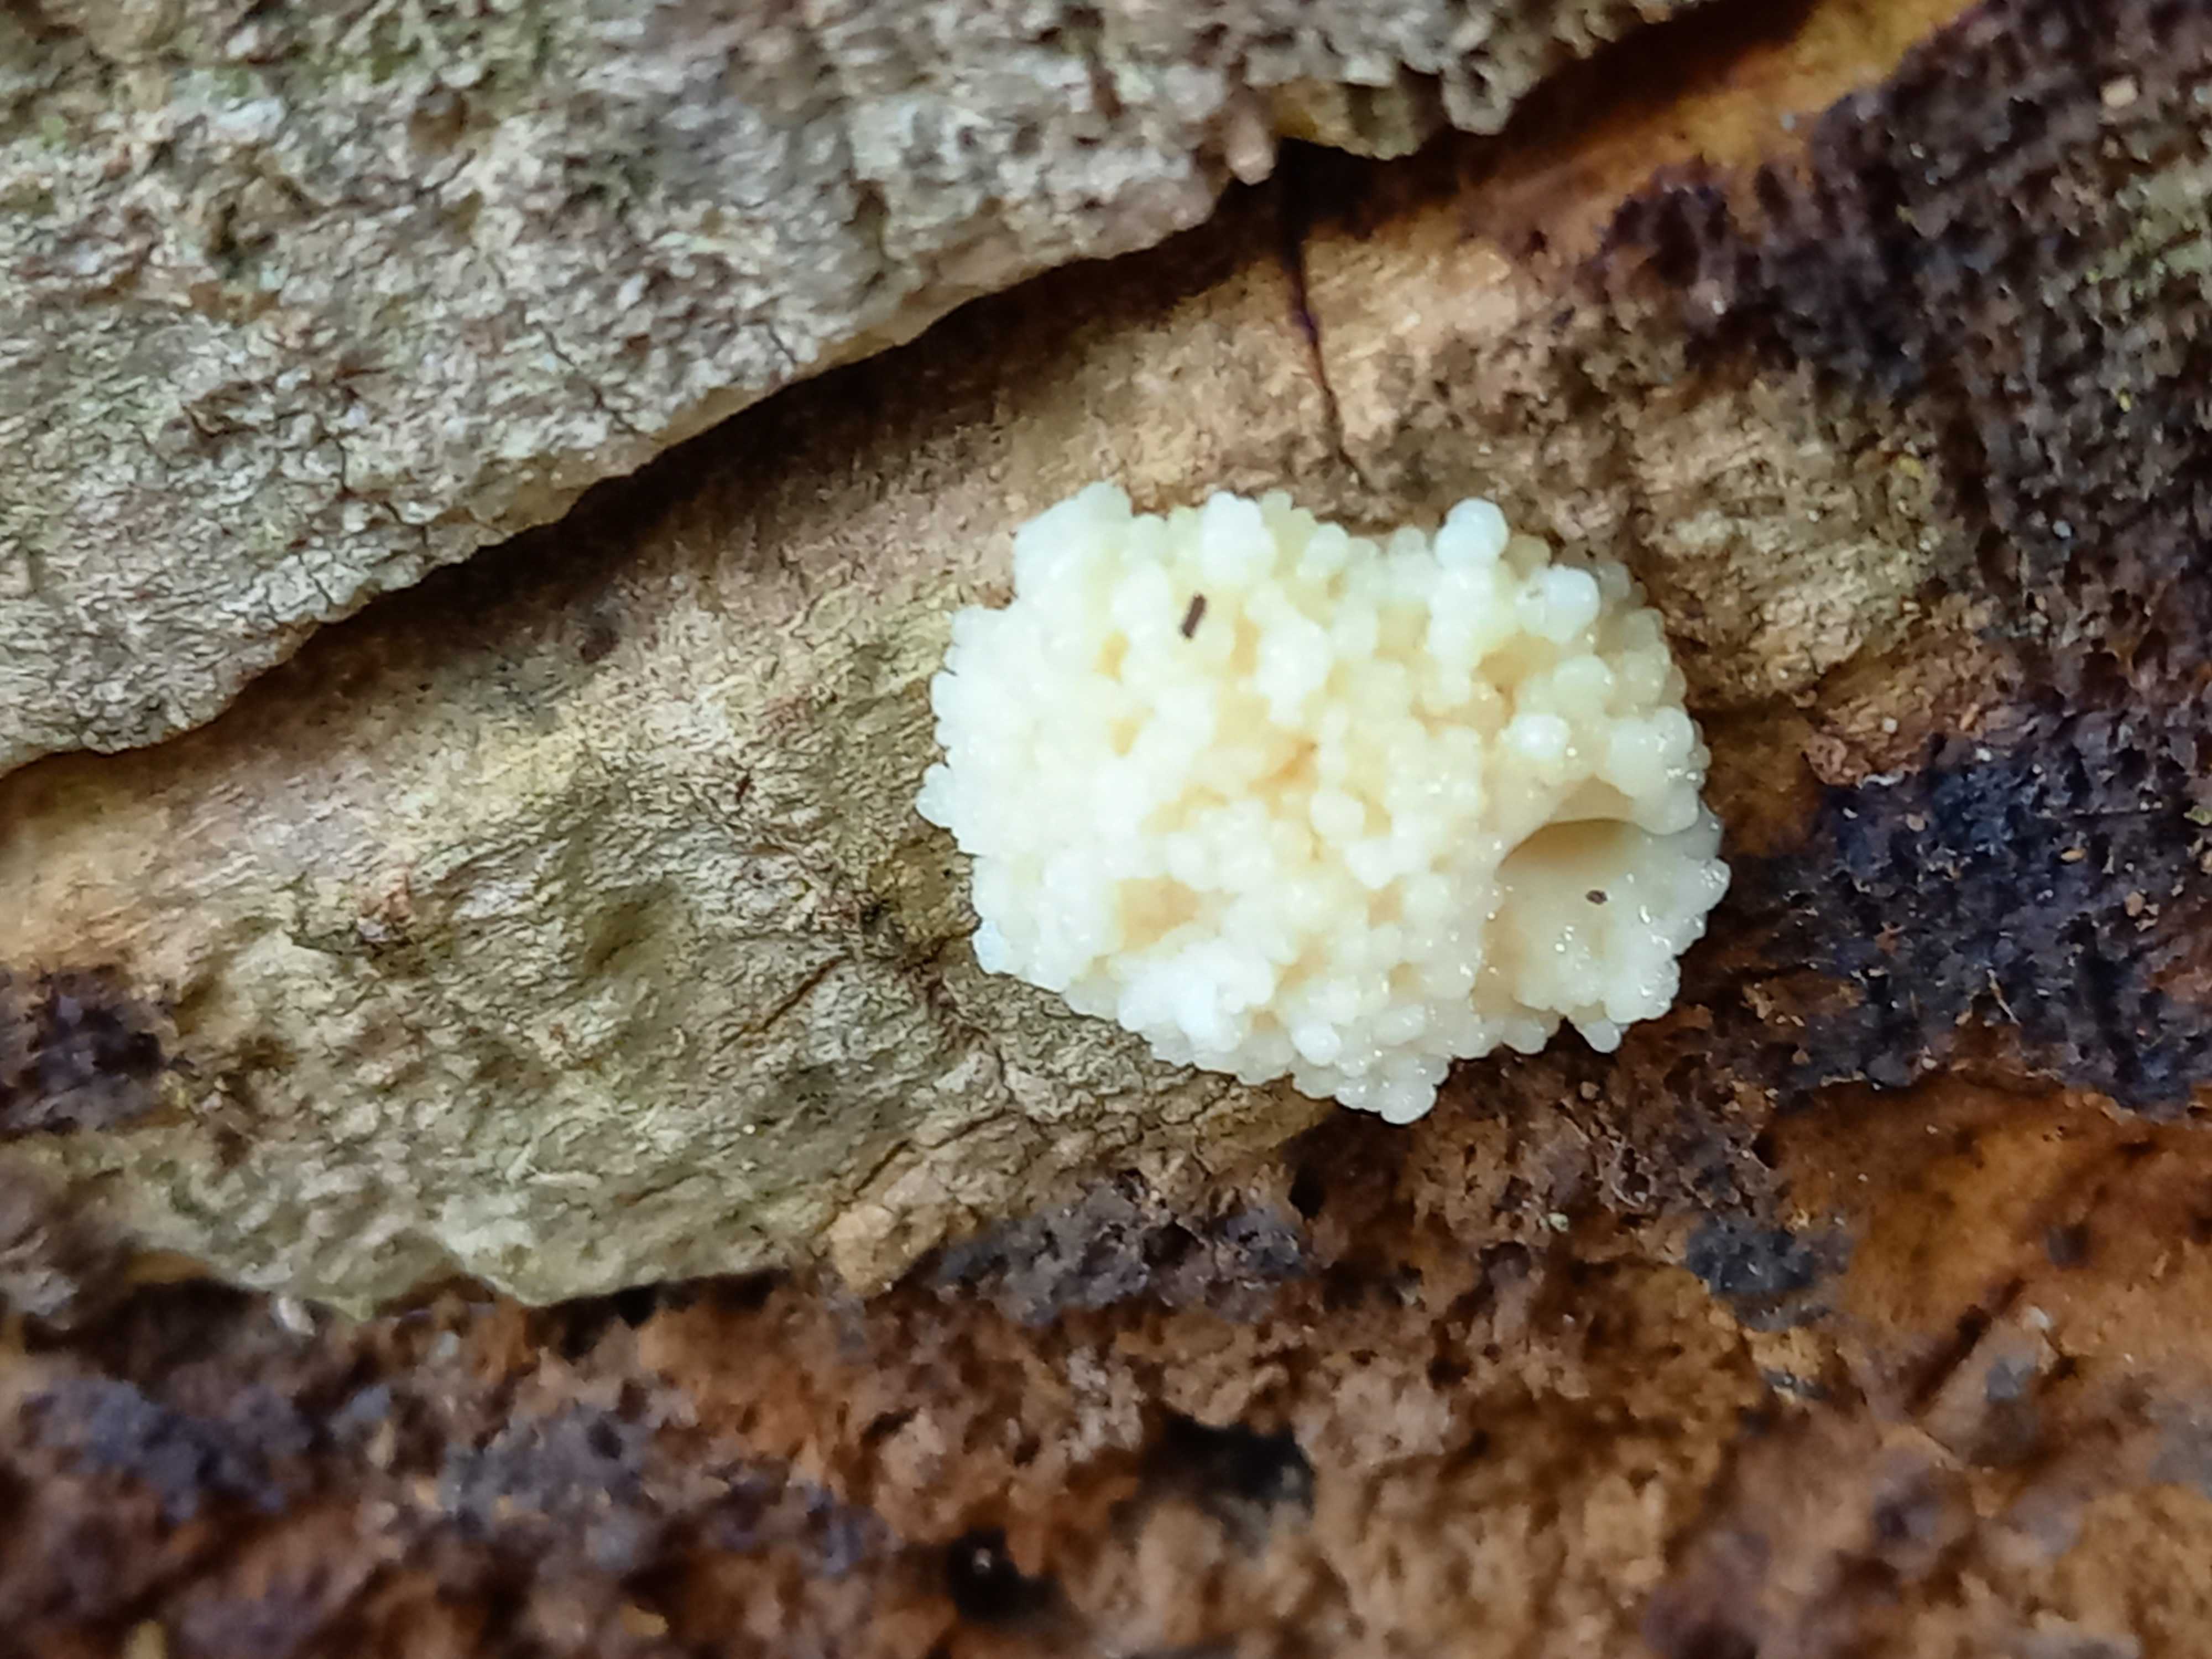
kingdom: Protozoa
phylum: Mycetozoa
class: Myxomycetes
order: Cribrariales
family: Tubiferaceae
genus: Reticularia
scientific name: Reticularia lycoperdon
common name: skinnende støvpude
